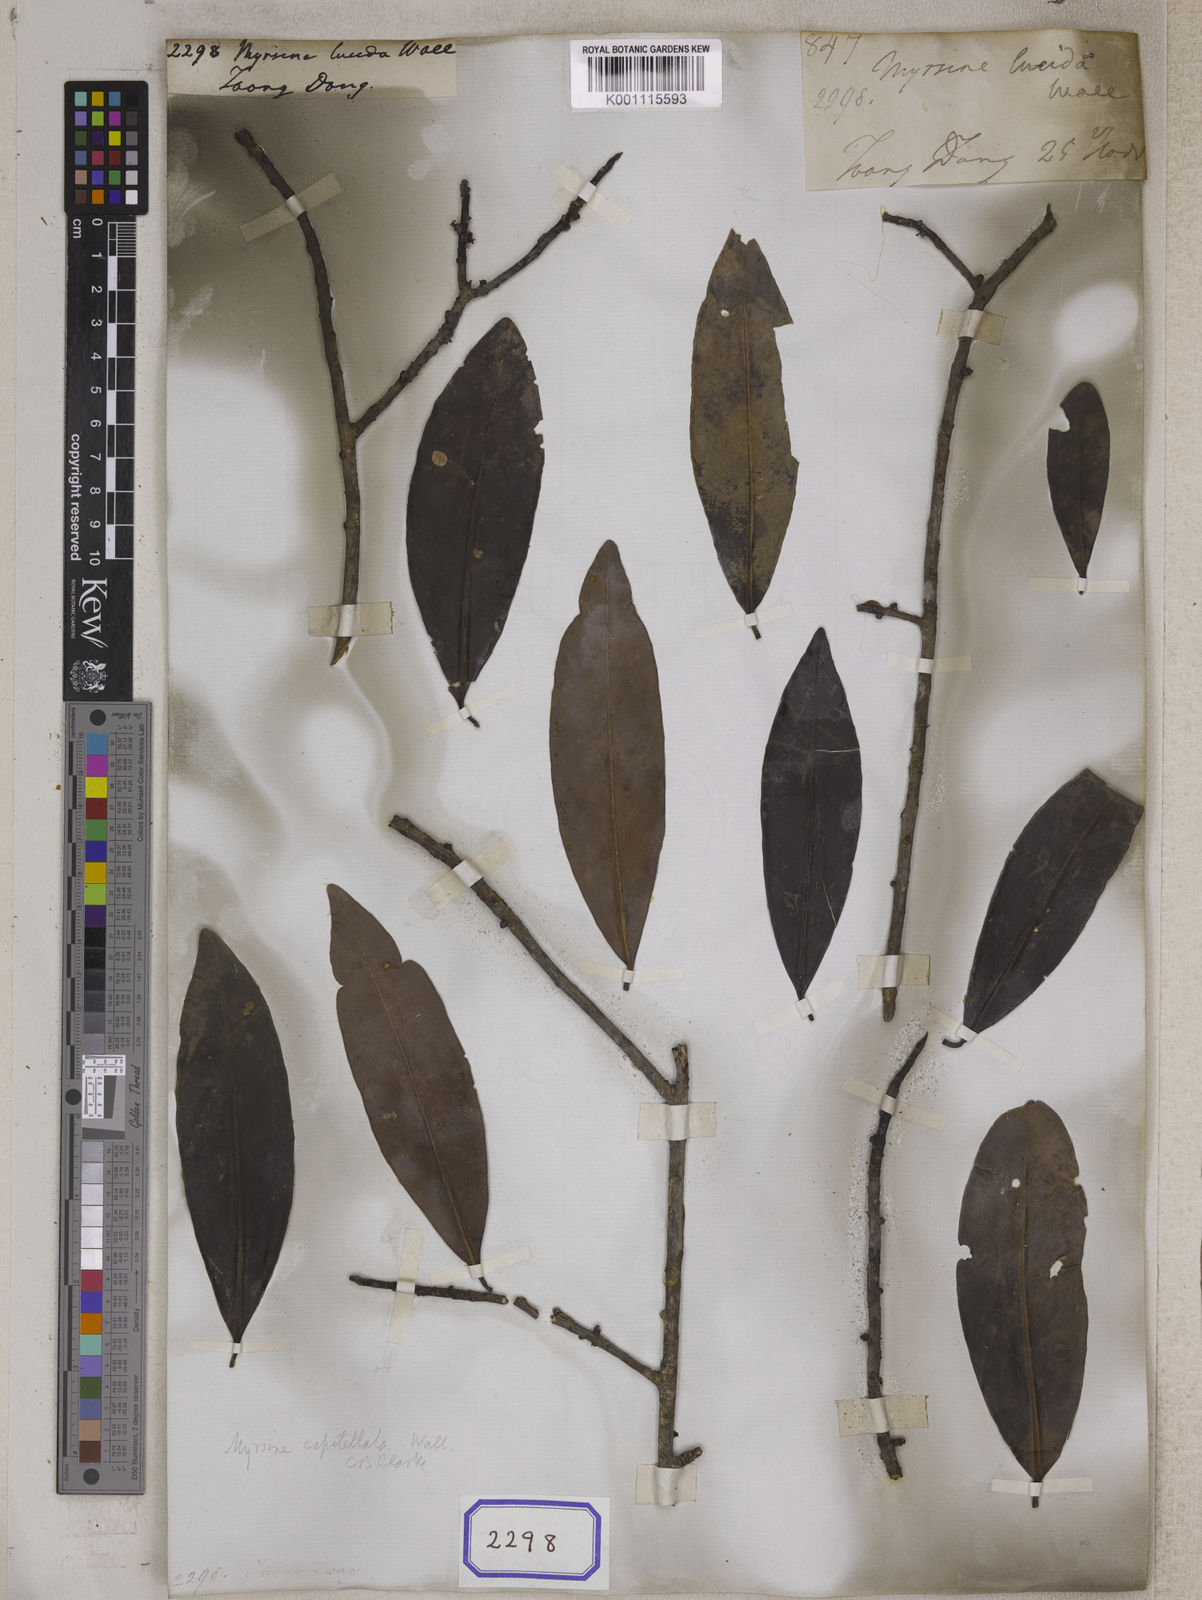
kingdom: Plantae
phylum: Tracheophyta
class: Magnoliopsida
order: Ericales
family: Primulaceae
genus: Myrsine
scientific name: Myrsine
